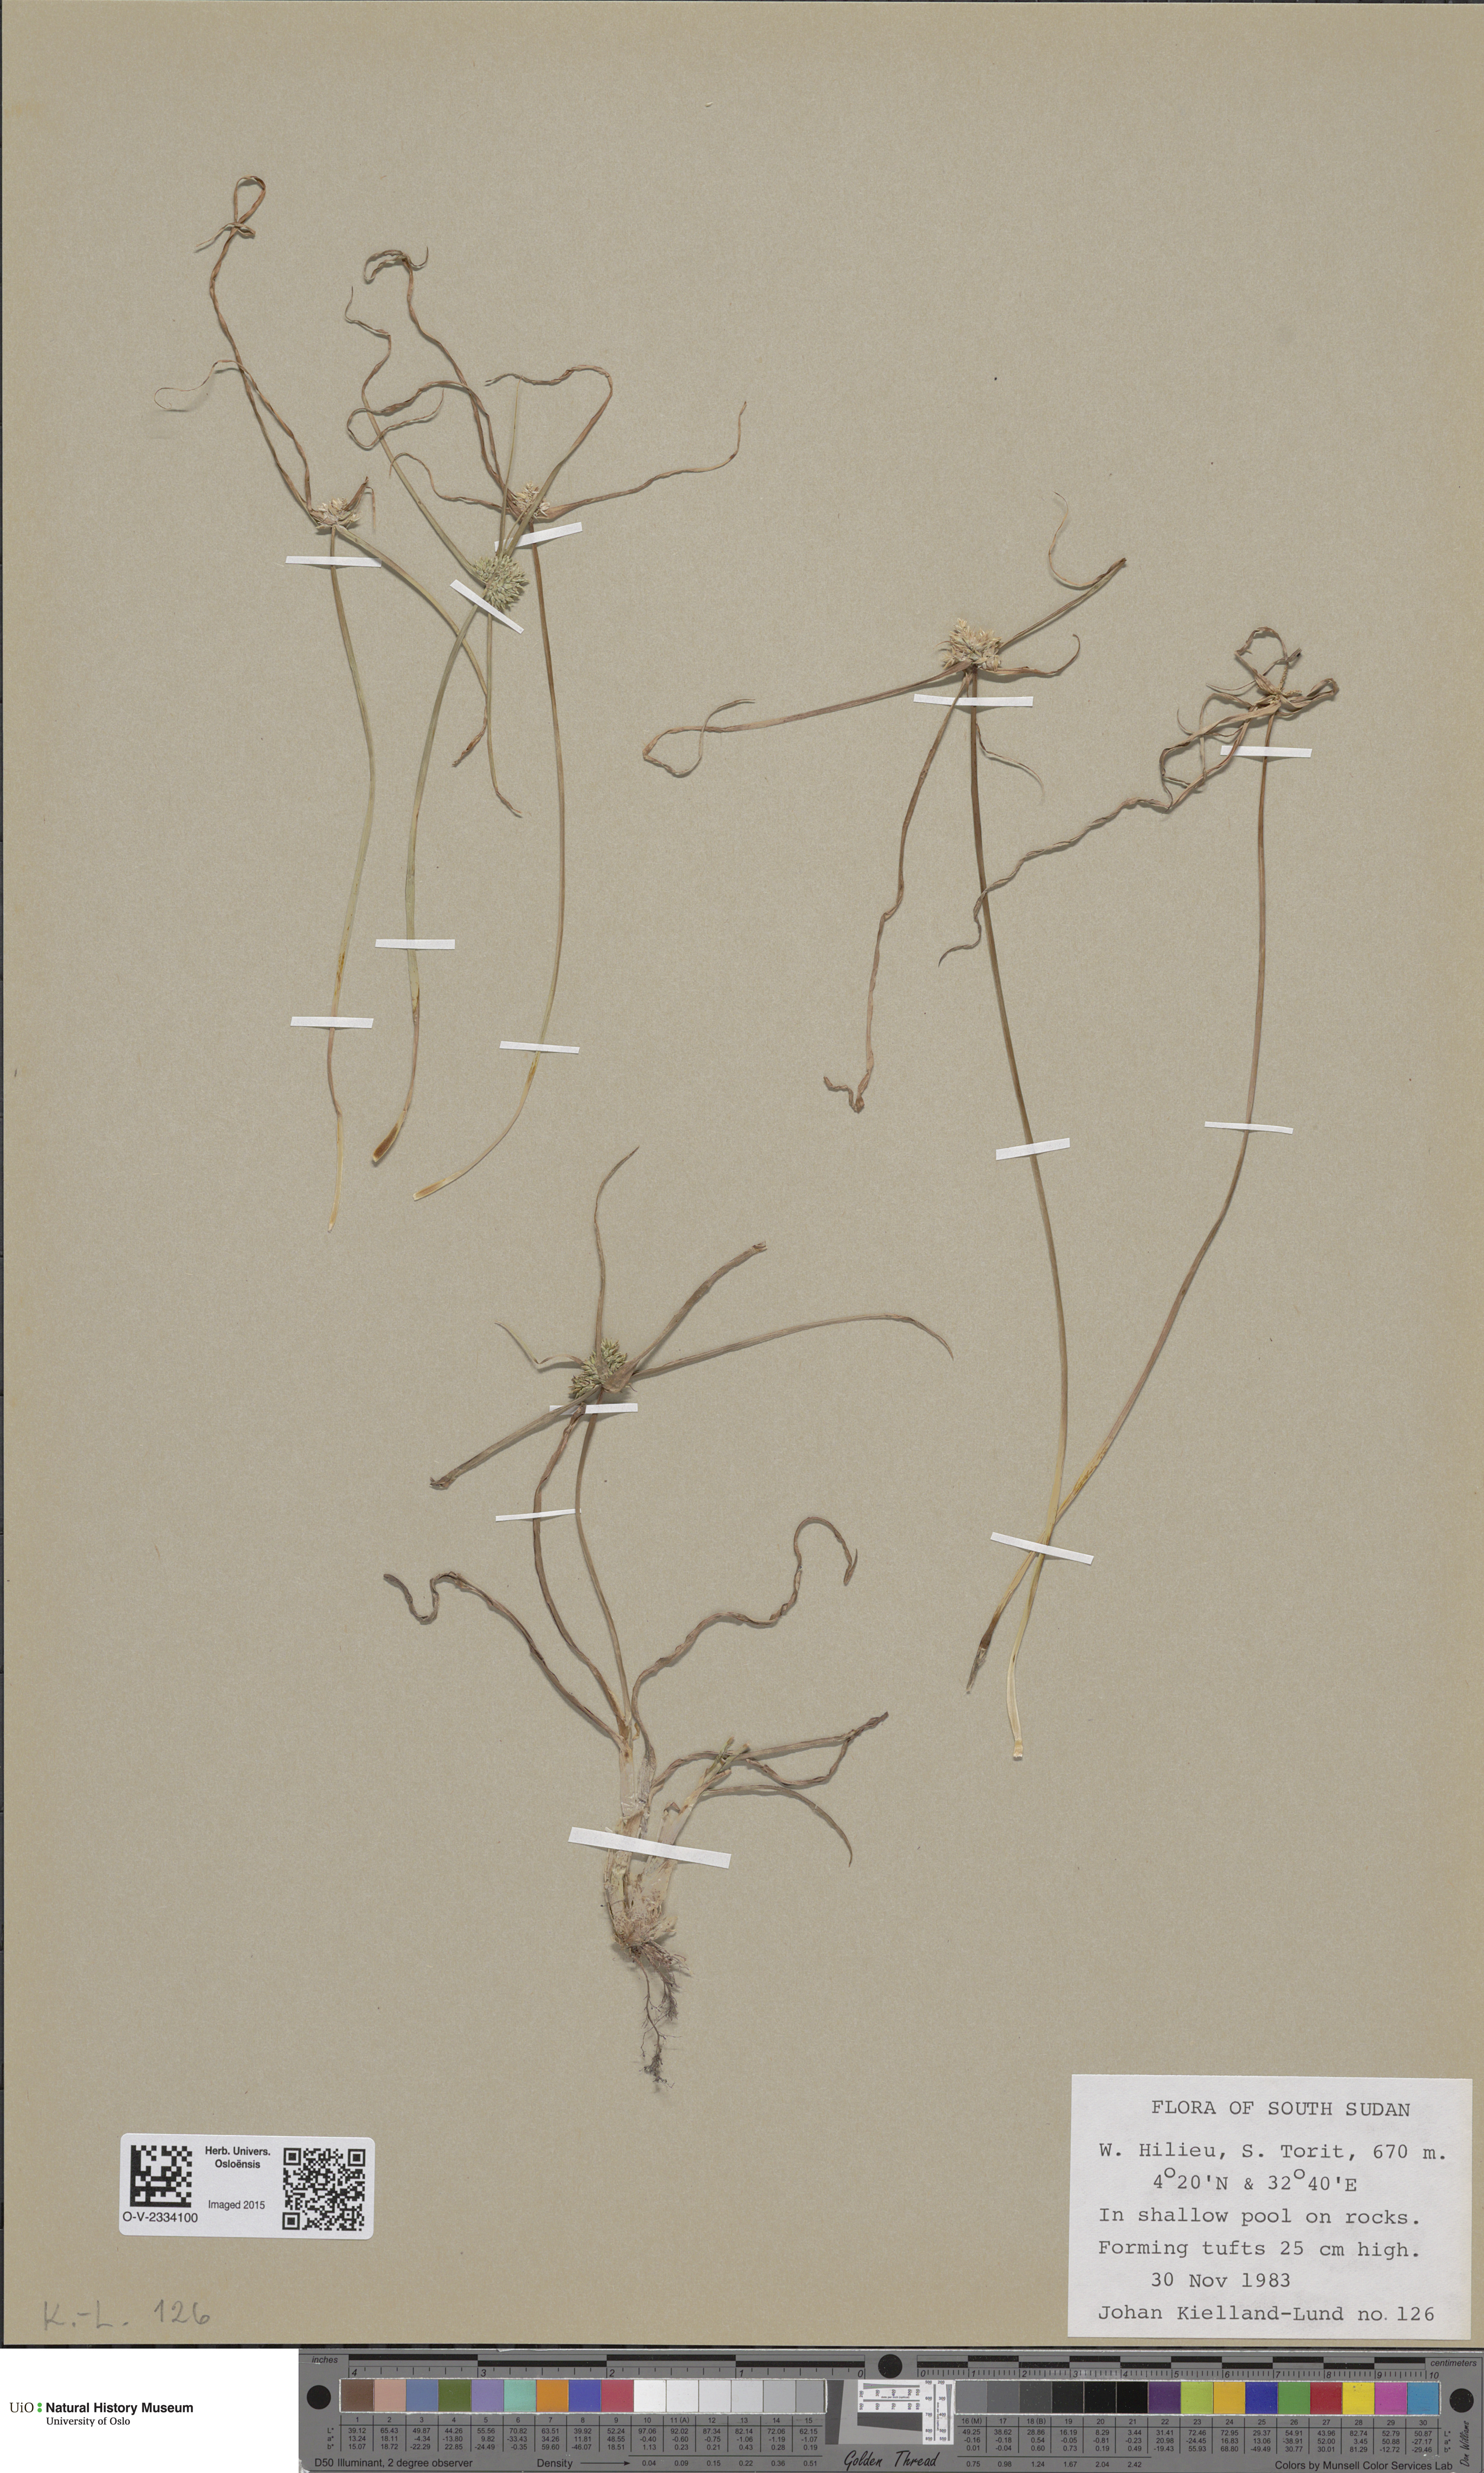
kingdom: Plantae
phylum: Tracheophyta
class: Magnoliopsida
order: Caryophyllales
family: Caryophyllaceae
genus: Stellaria
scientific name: Stellaria longipes
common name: Goldie's starwort
